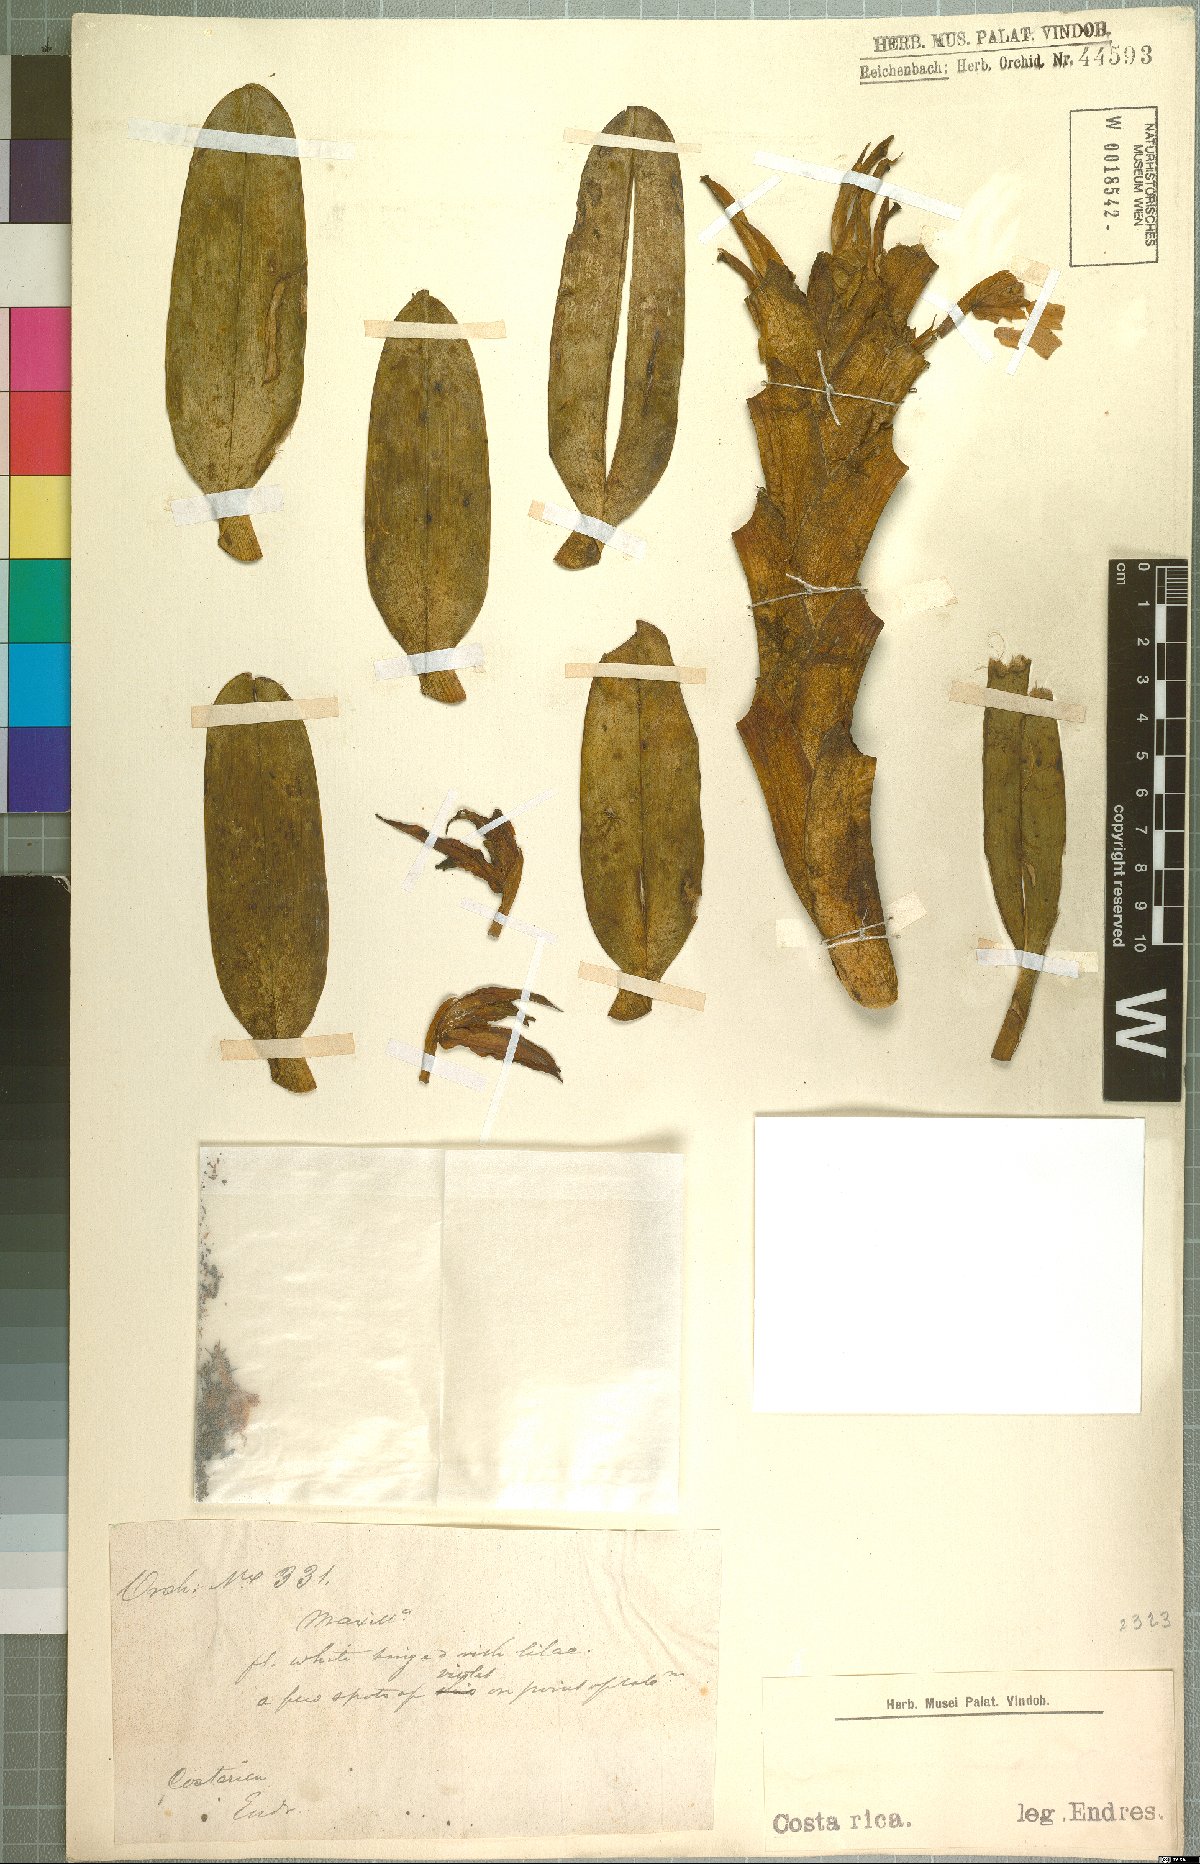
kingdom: Plantae
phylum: Tracheophyta
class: Liliopsida
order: Asparagales
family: Orchidaceae
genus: Maxillaria
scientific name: Maxillaria
